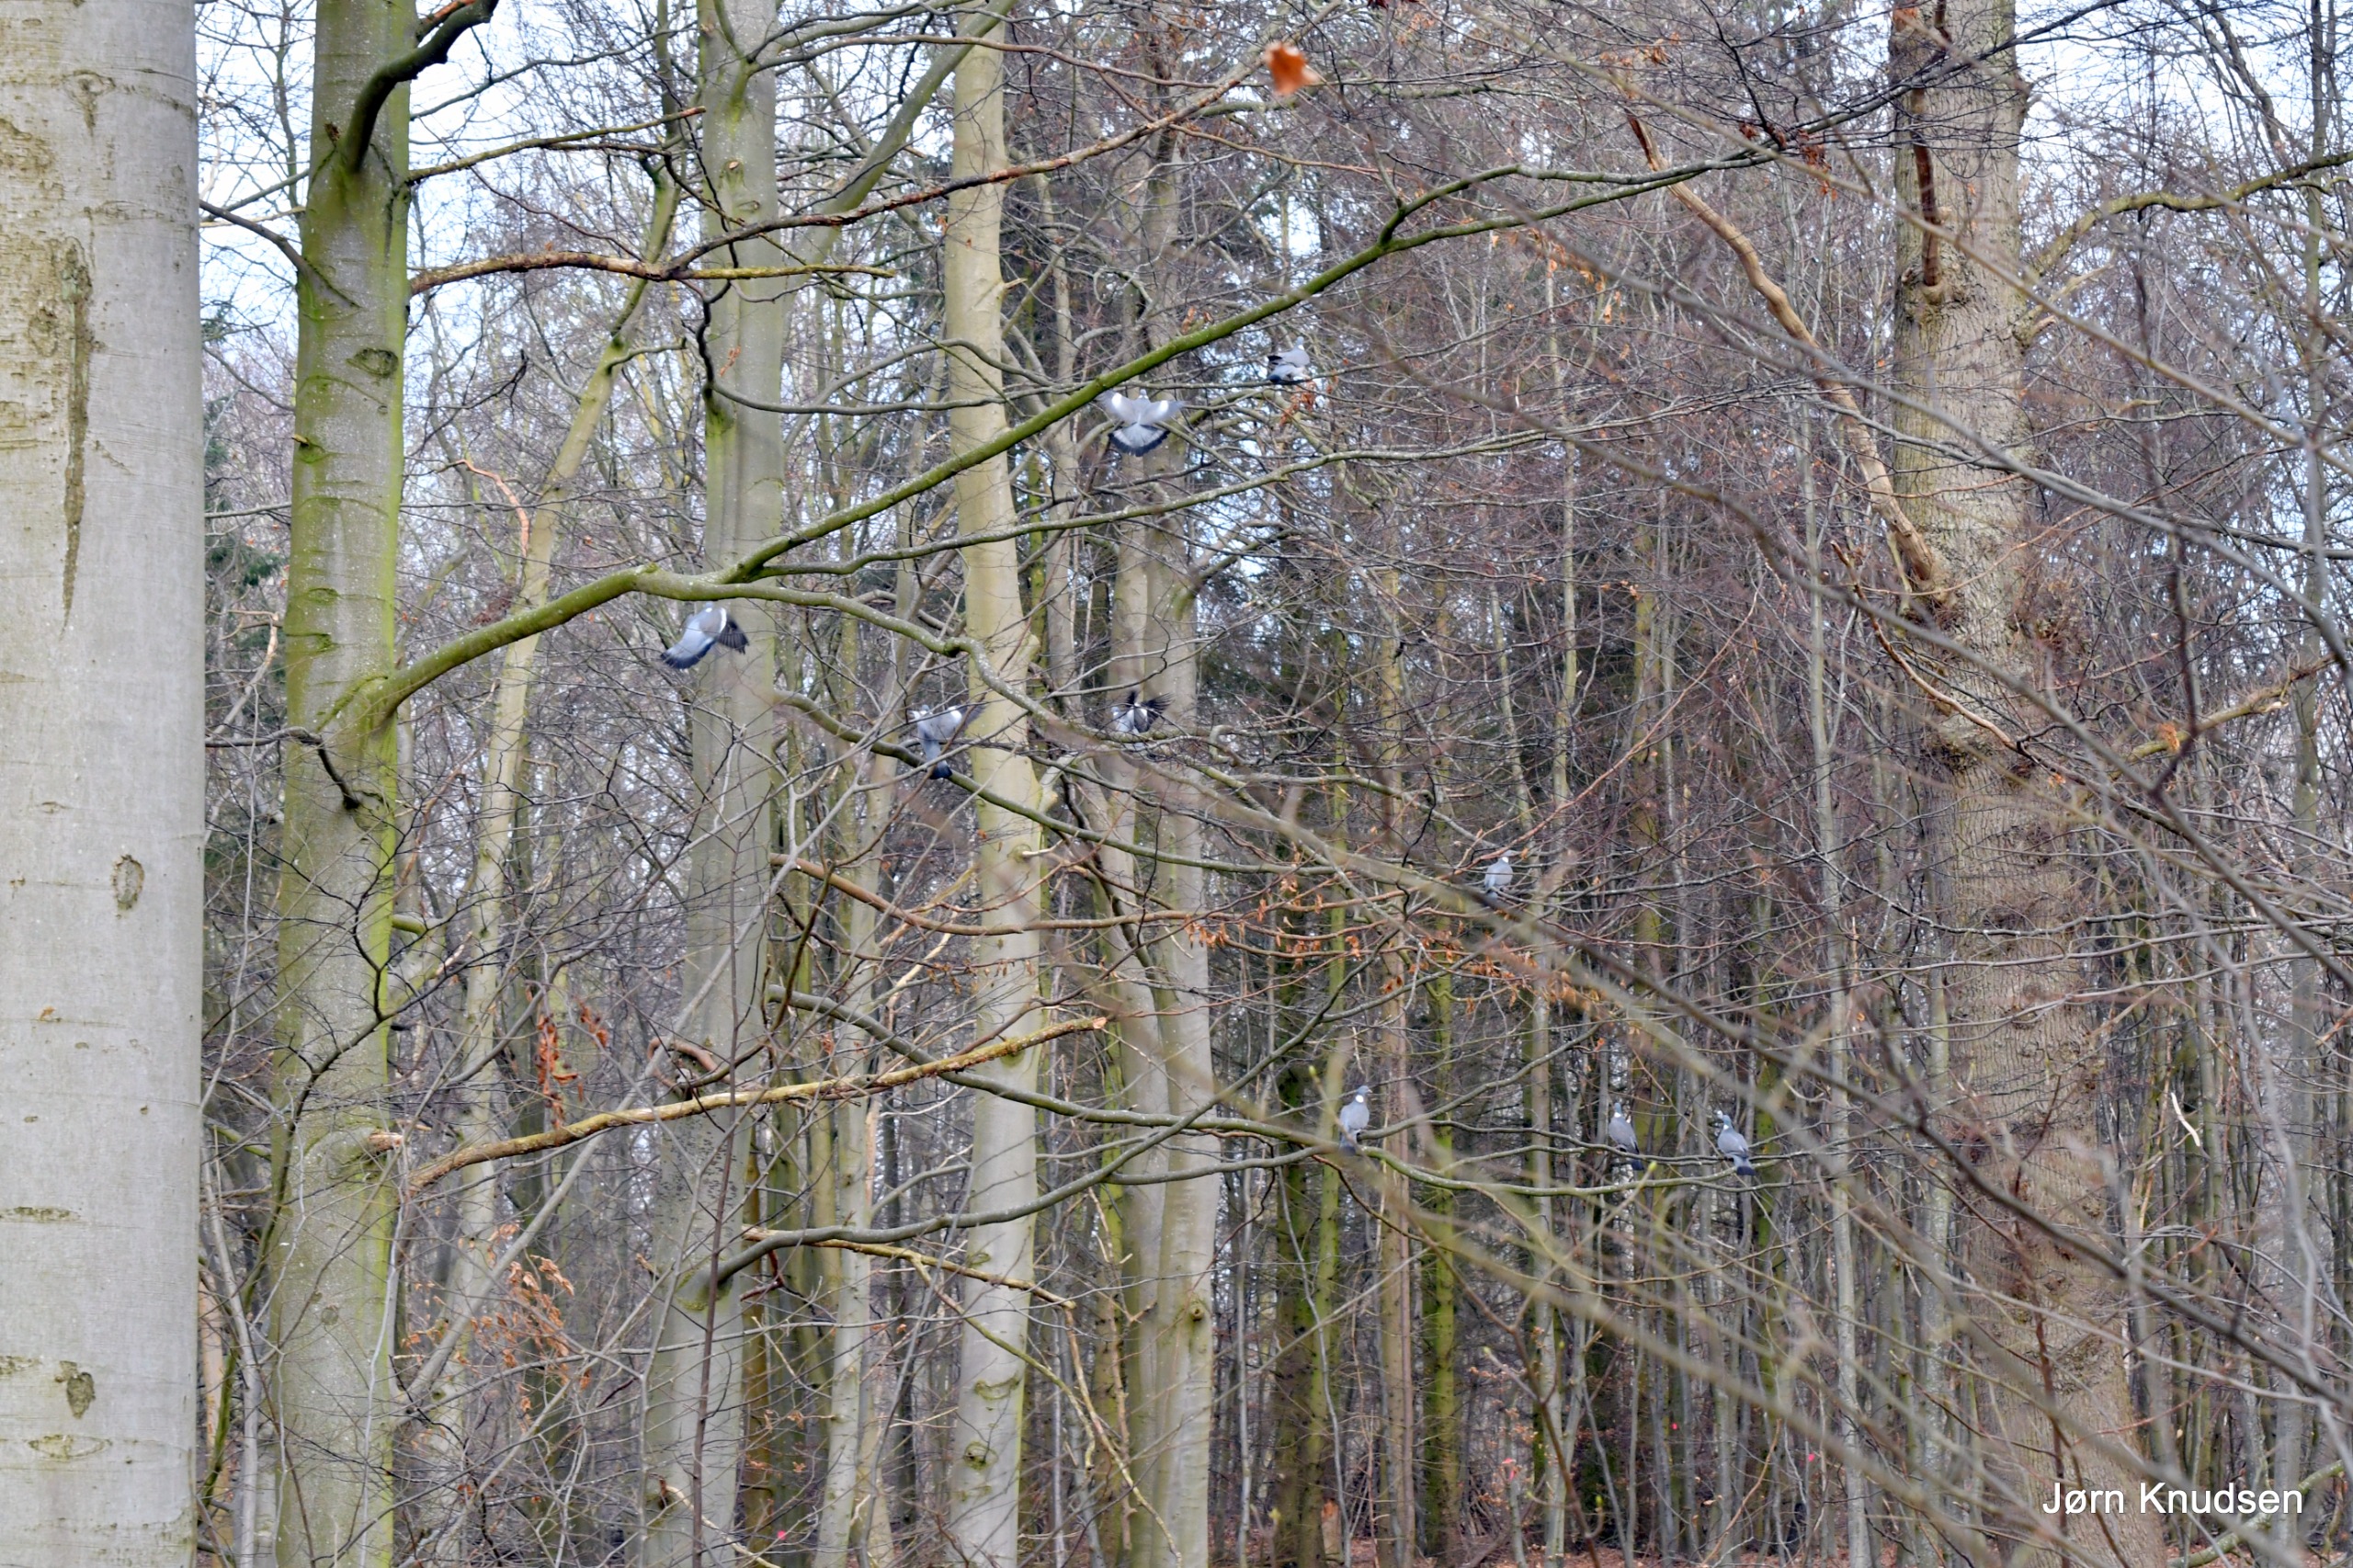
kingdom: Animalia
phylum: Chordata
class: Aves
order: Columbiformes
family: Columbidae
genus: Columba
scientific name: Columba palumbus
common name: Ringdue
